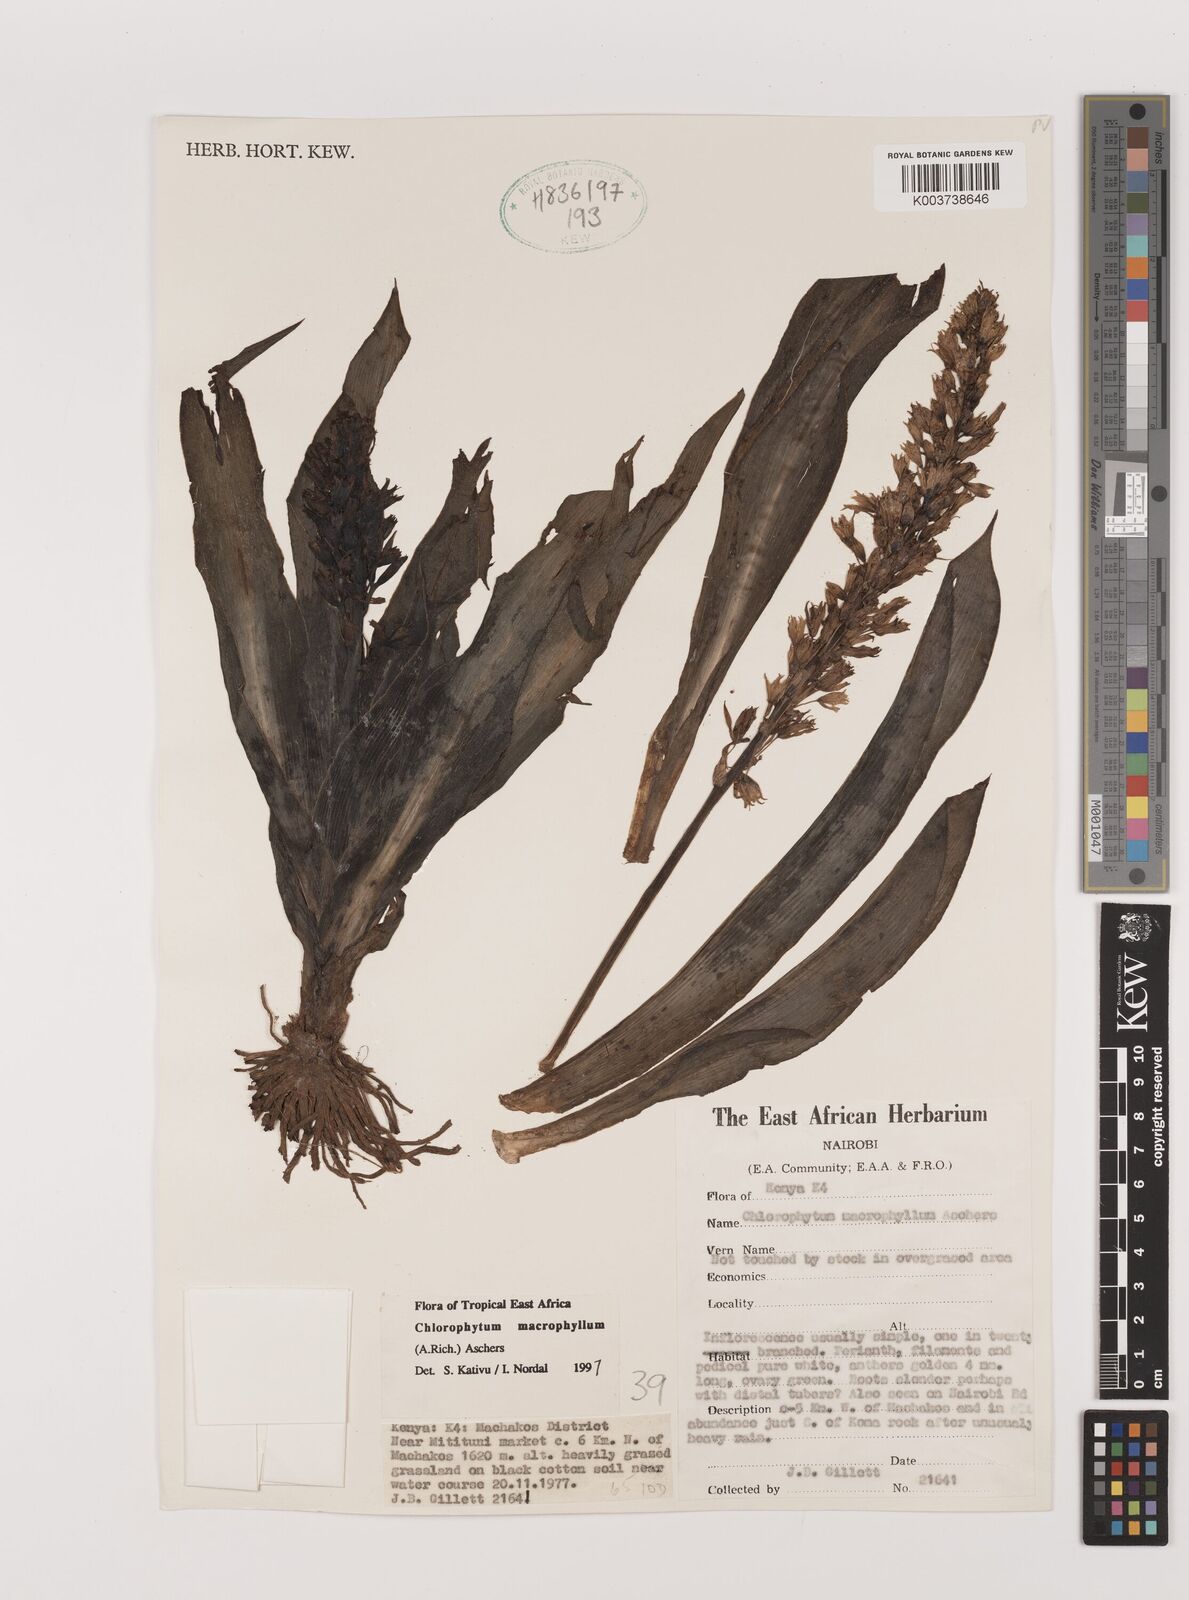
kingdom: Plantae
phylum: Tracheophyta
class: Liliopsida
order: Asparagales
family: Asparagaceae
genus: Chlorophytum
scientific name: Chlorophytum macrophyllum
